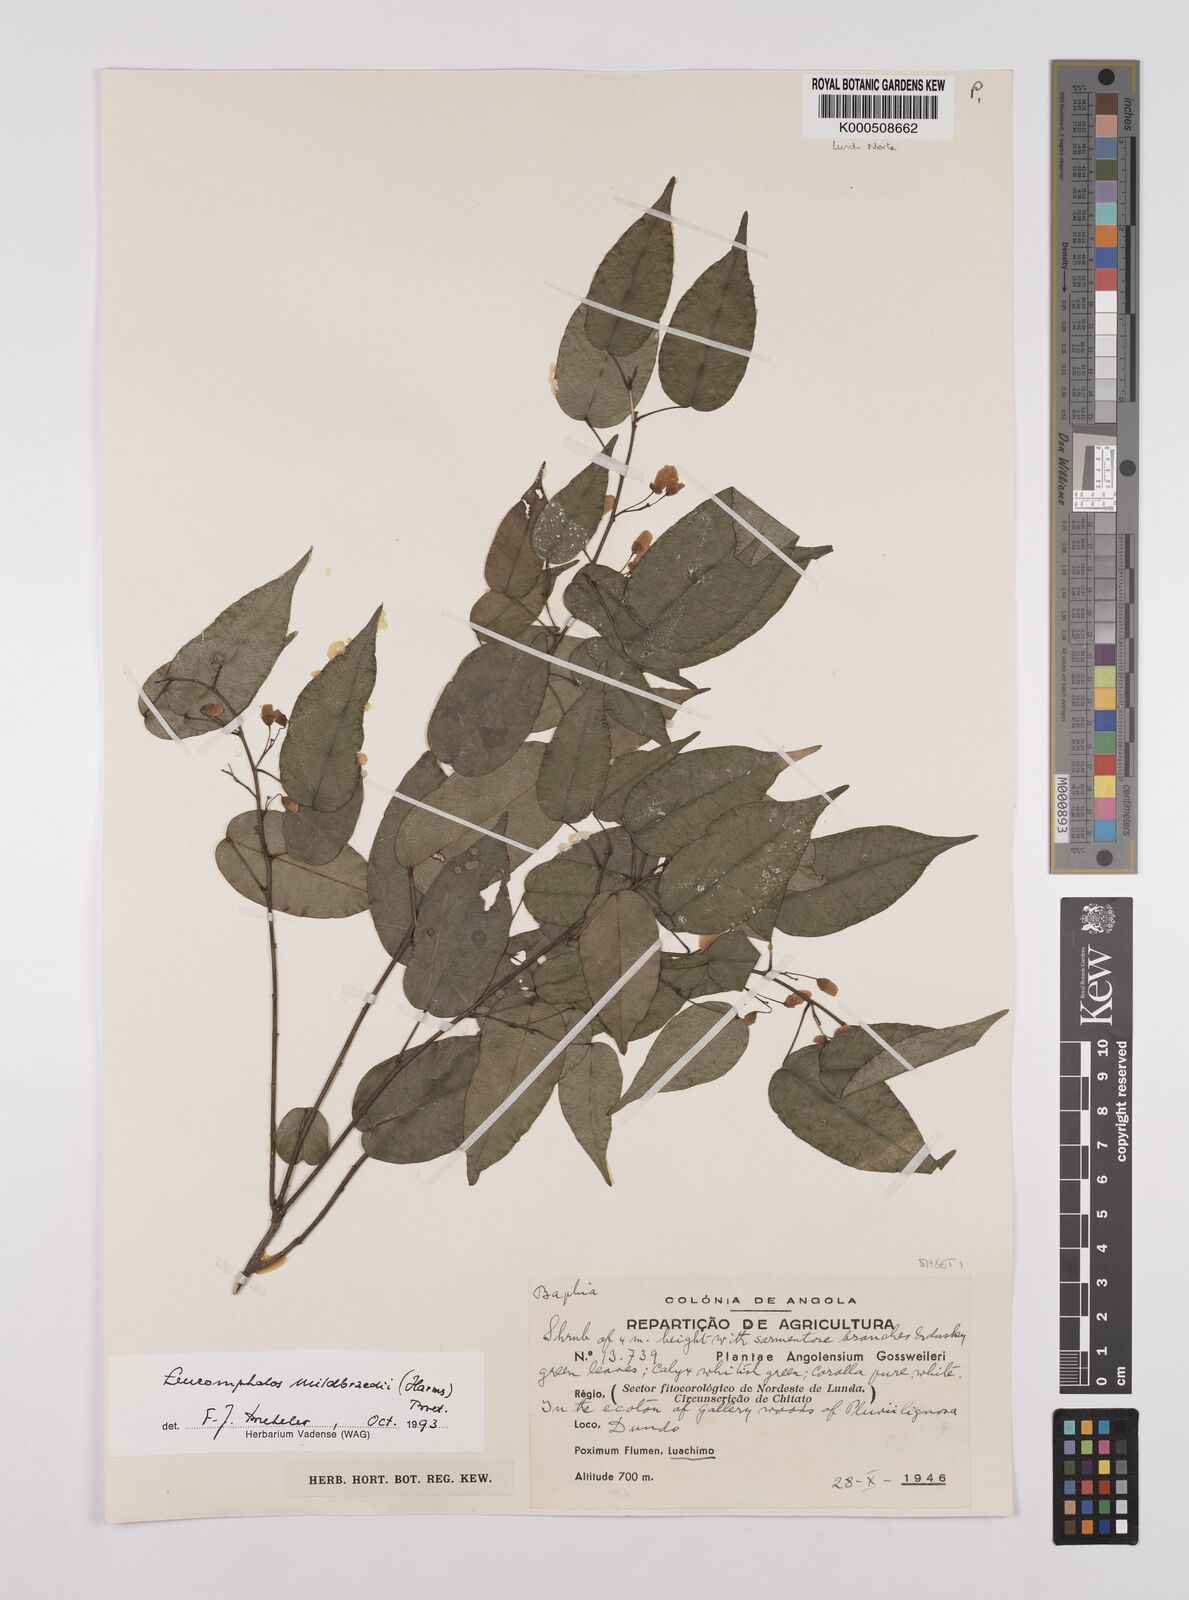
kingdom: Plantae
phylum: Tracheophyta
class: Magnoliopsida
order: Fabales
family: Fabaceae
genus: Bowringia
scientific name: Bowringia mildbraedii
